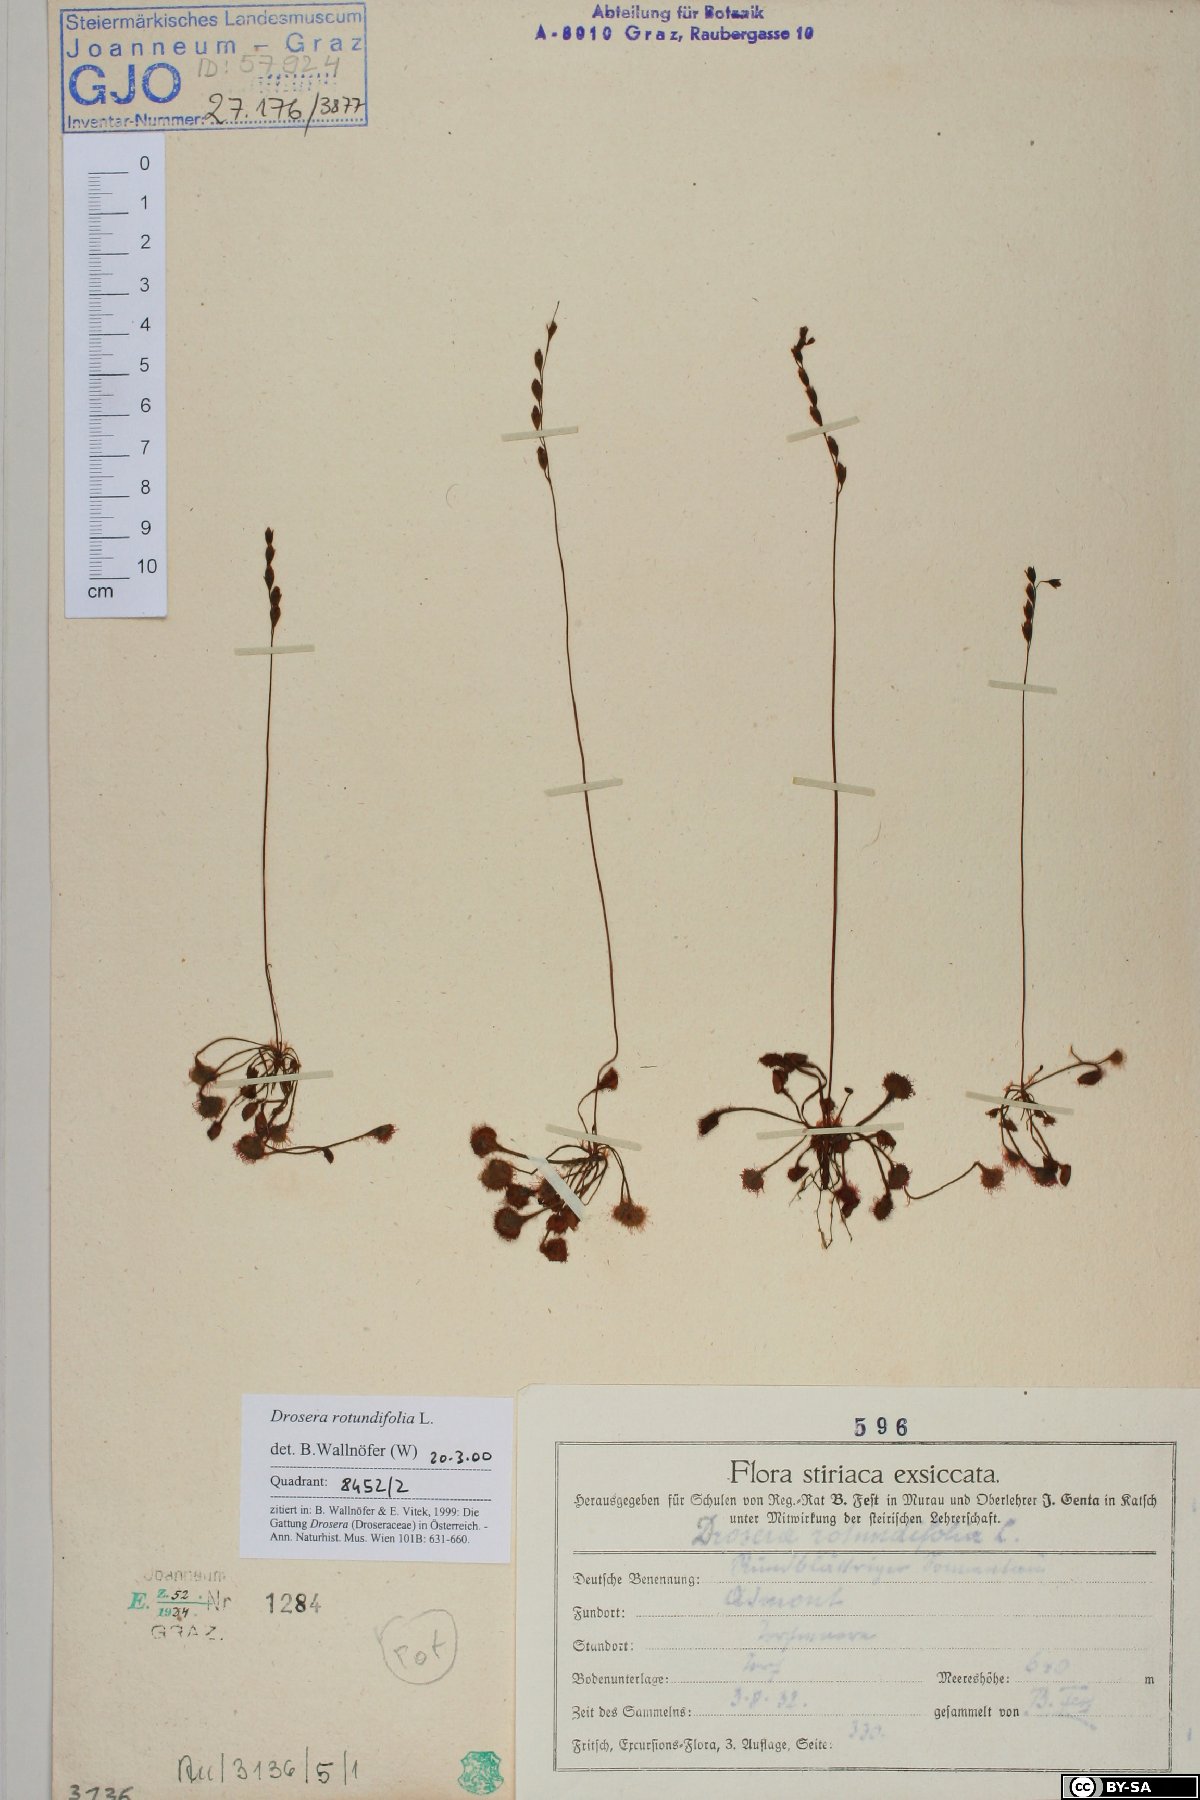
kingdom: Plantae
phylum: Tracheophyta
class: Magnoliopsida
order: Caryophyllales
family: Droseraceae
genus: Drosera
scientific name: Drosera rotundifolia
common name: Round-leaved sundew
